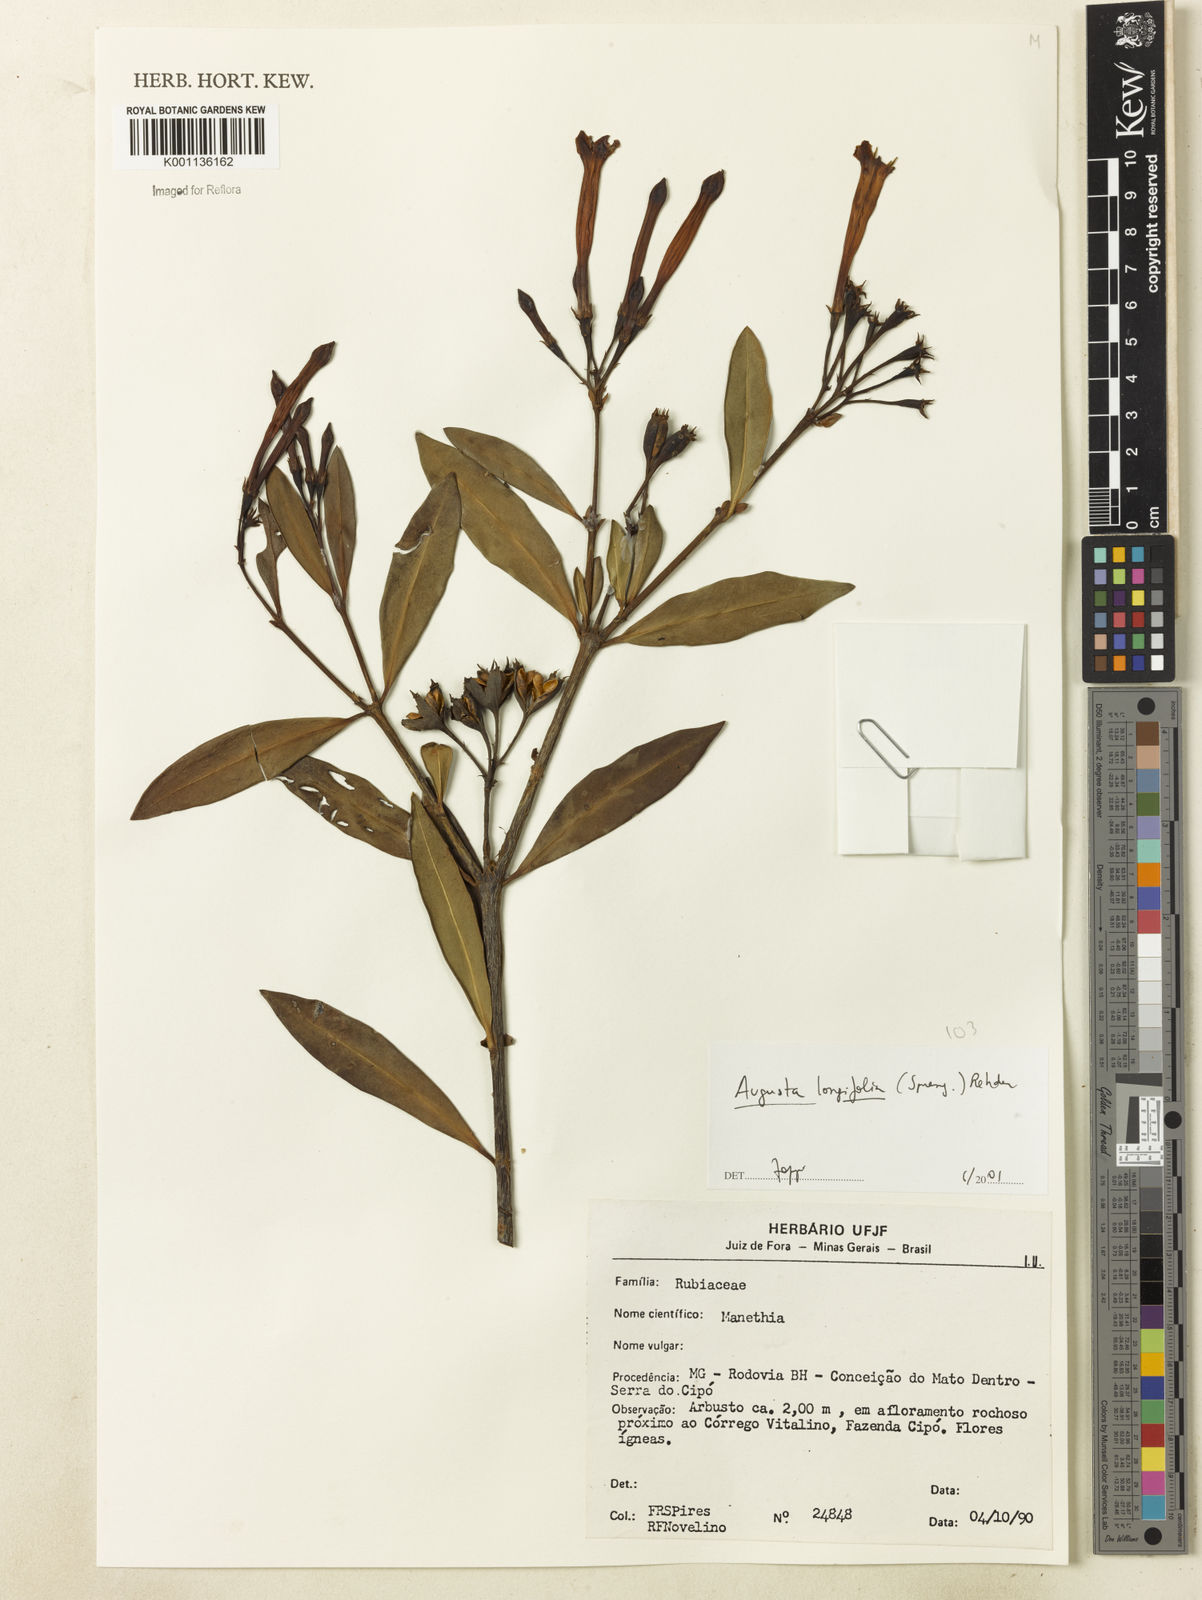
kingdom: Plantae
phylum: Tracheophyta
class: Magnoliopsida
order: Gentianales
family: Rubiaceae
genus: Augusta
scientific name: Augusta longifolia
